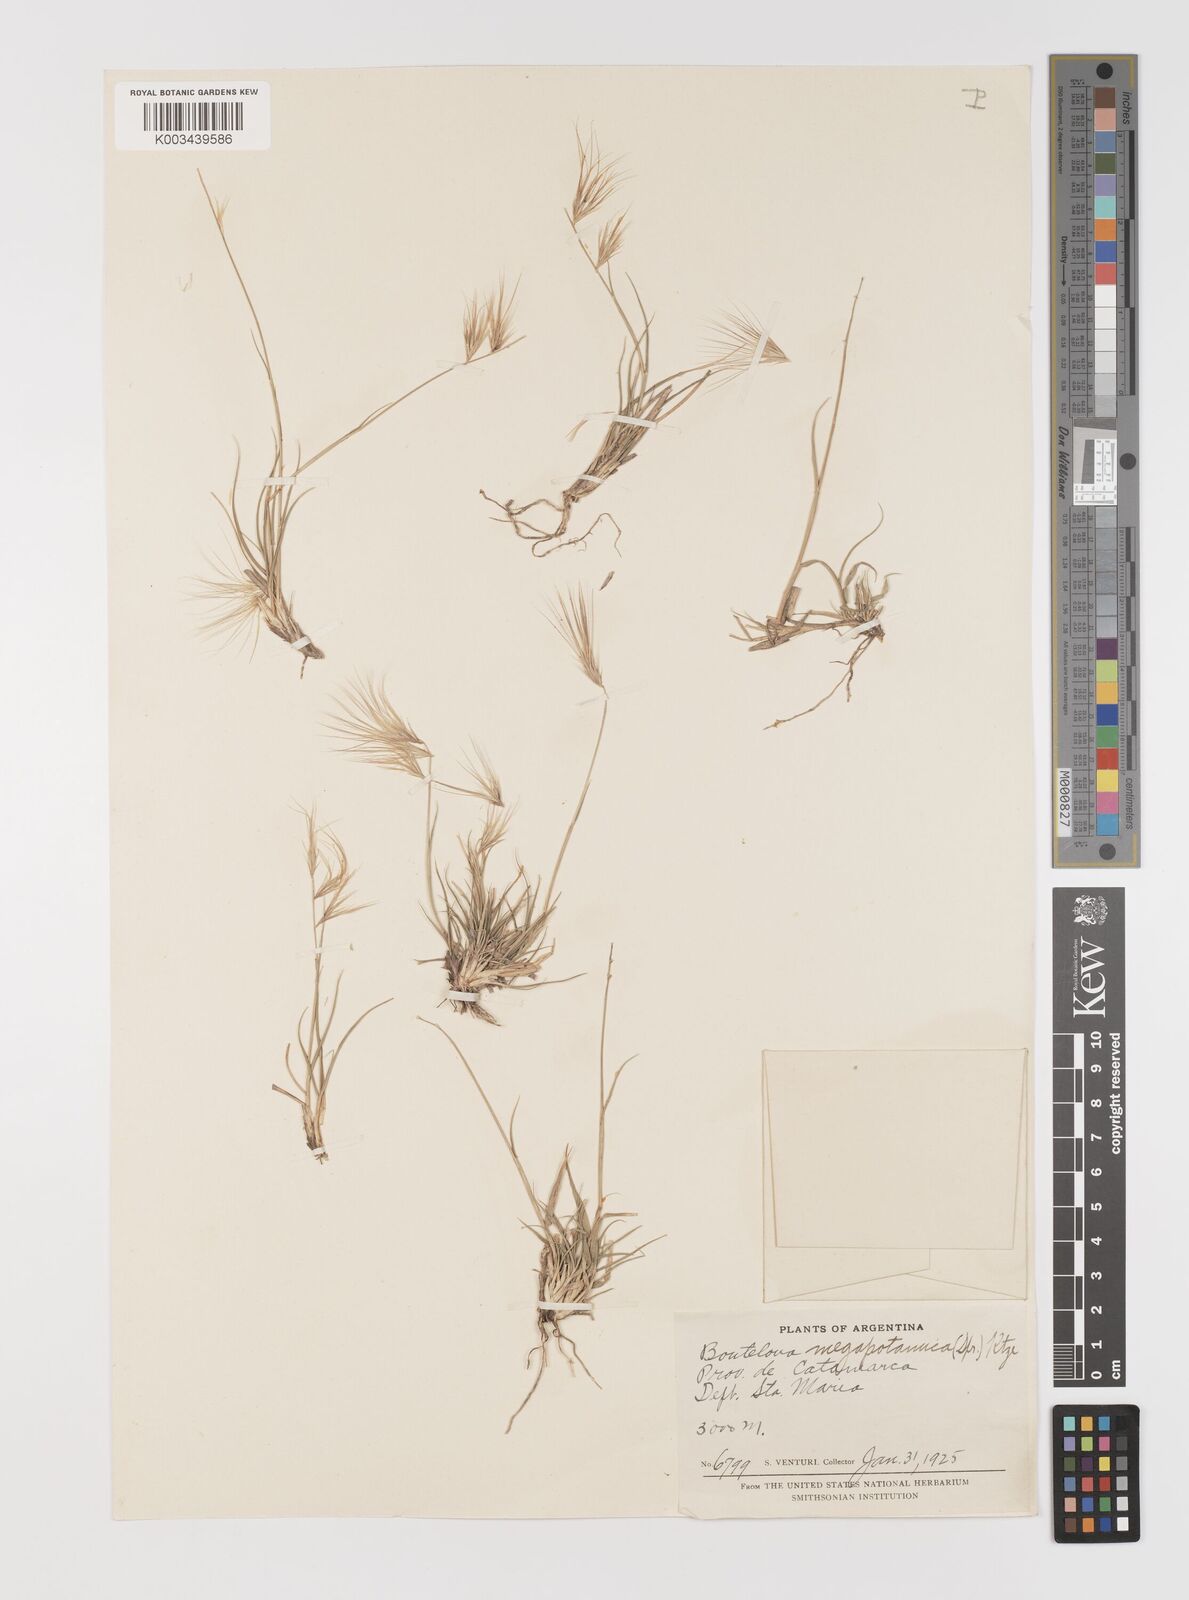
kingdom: Plantae
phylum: Tracheophyta
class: Liliopsida
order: Poales
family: Poaceae
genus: Bouteloua
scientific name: Bouteloua megapotamica
